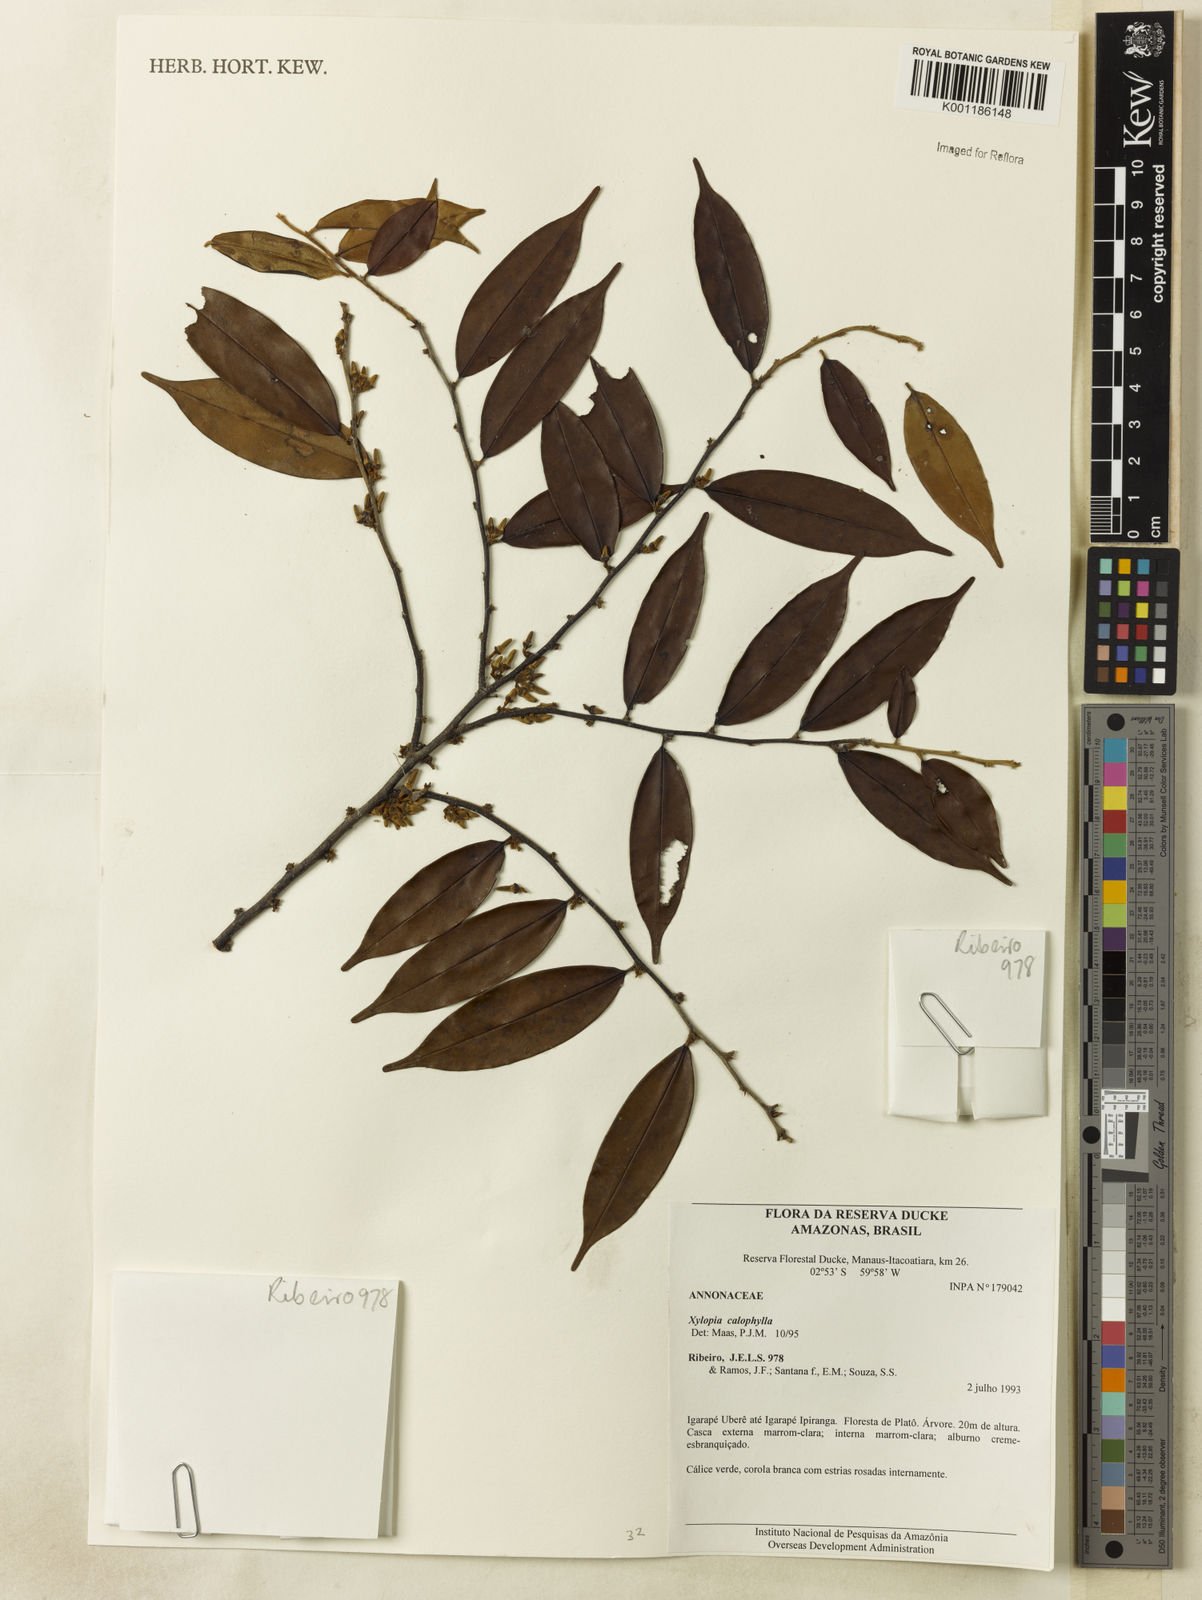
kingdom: Plantae
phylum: Tracheophyta
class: Magnoliopsida
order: Magnoliales
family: Annonaceae
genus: Xylopia
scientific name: Xylopia calophylla
